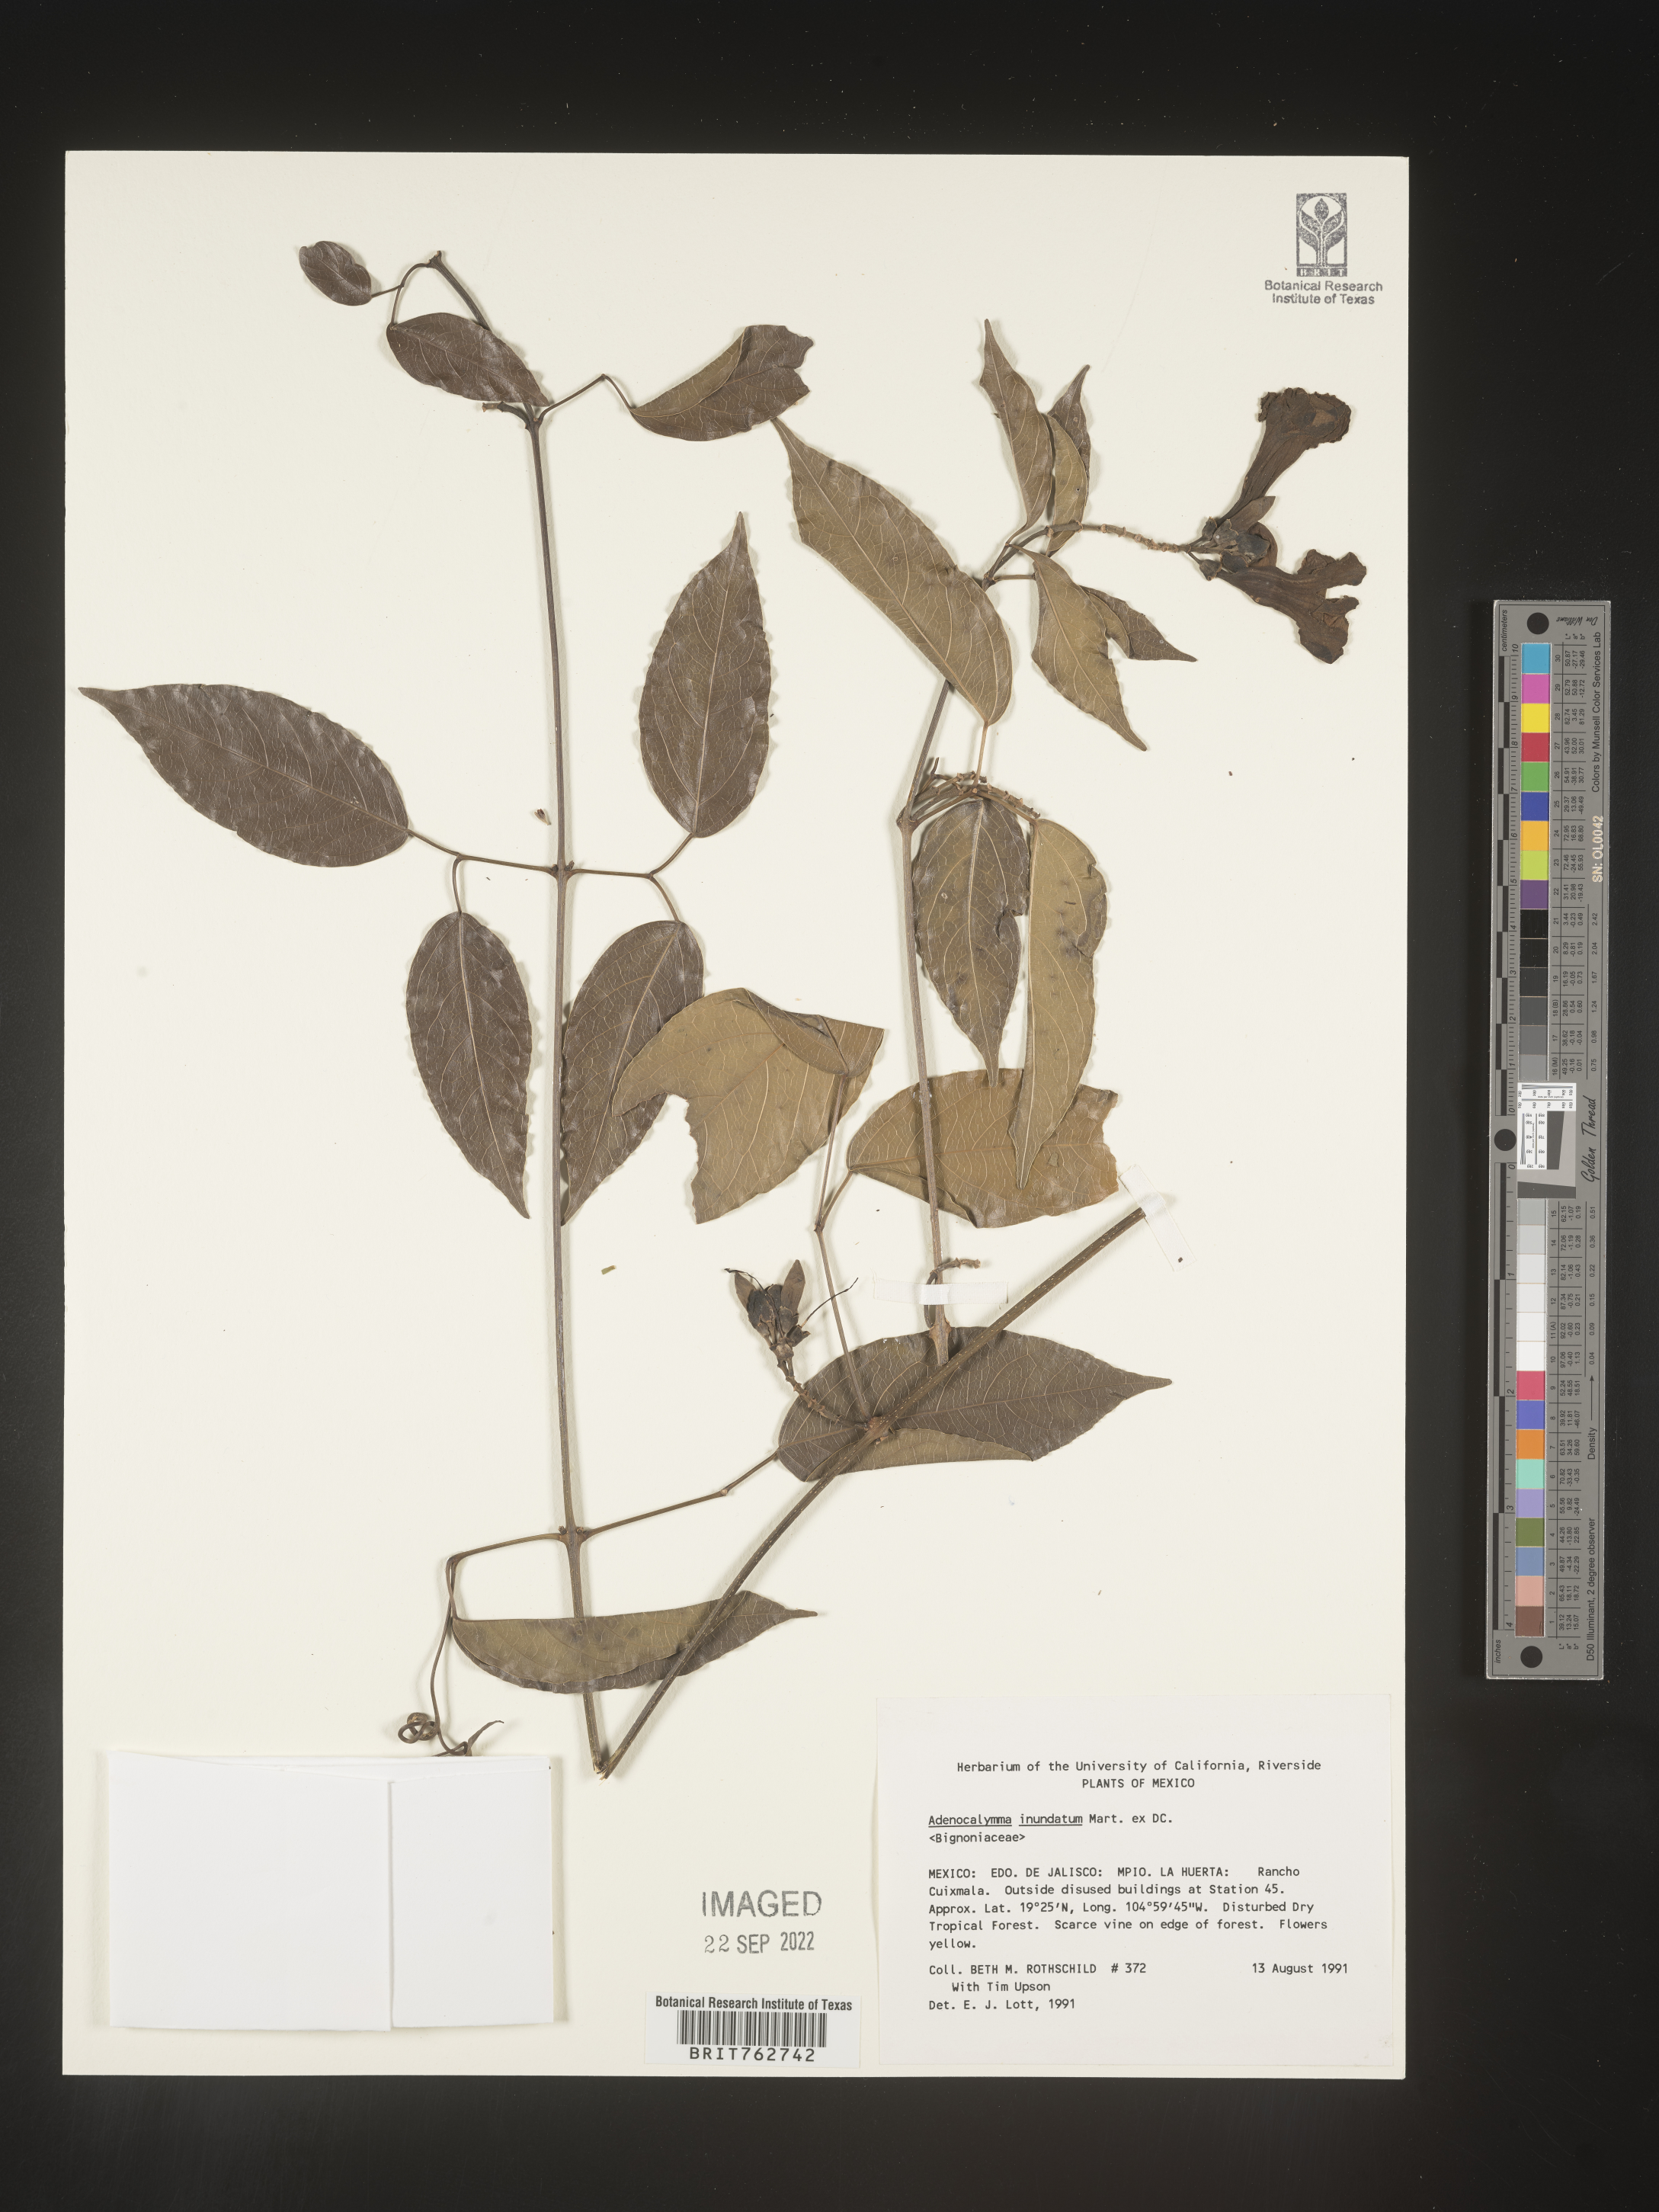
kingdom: Plantae
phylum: Tracheophyta
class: Magnoliopsida
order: Lamiales
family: Bignoniaceae
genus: Adenocalymma
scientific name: Adenocalymma
